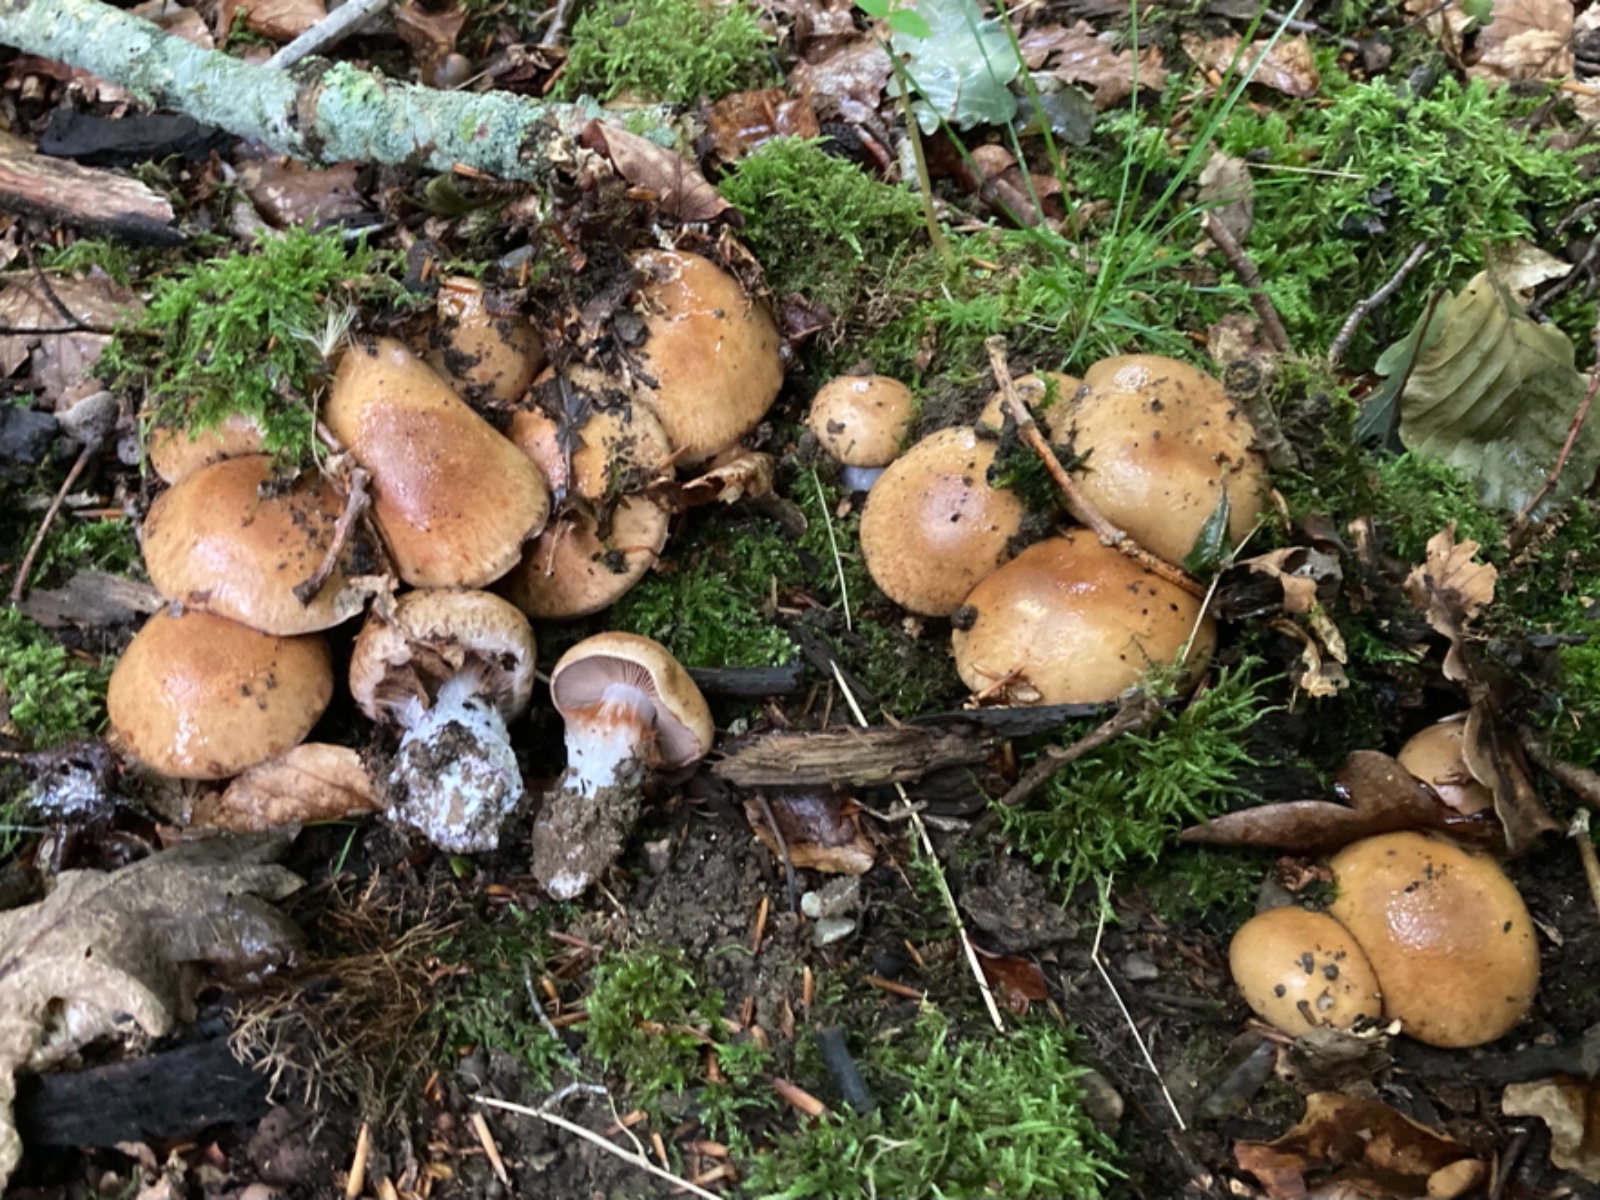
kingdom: Fungi
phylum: Basidiomycota
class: Agaricomycetes
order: Agaricales
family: Cortinariaceae
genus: Thaxterogaster
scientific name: Thaxterogaster subpurpurascens
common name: mørkblånende slørhat
